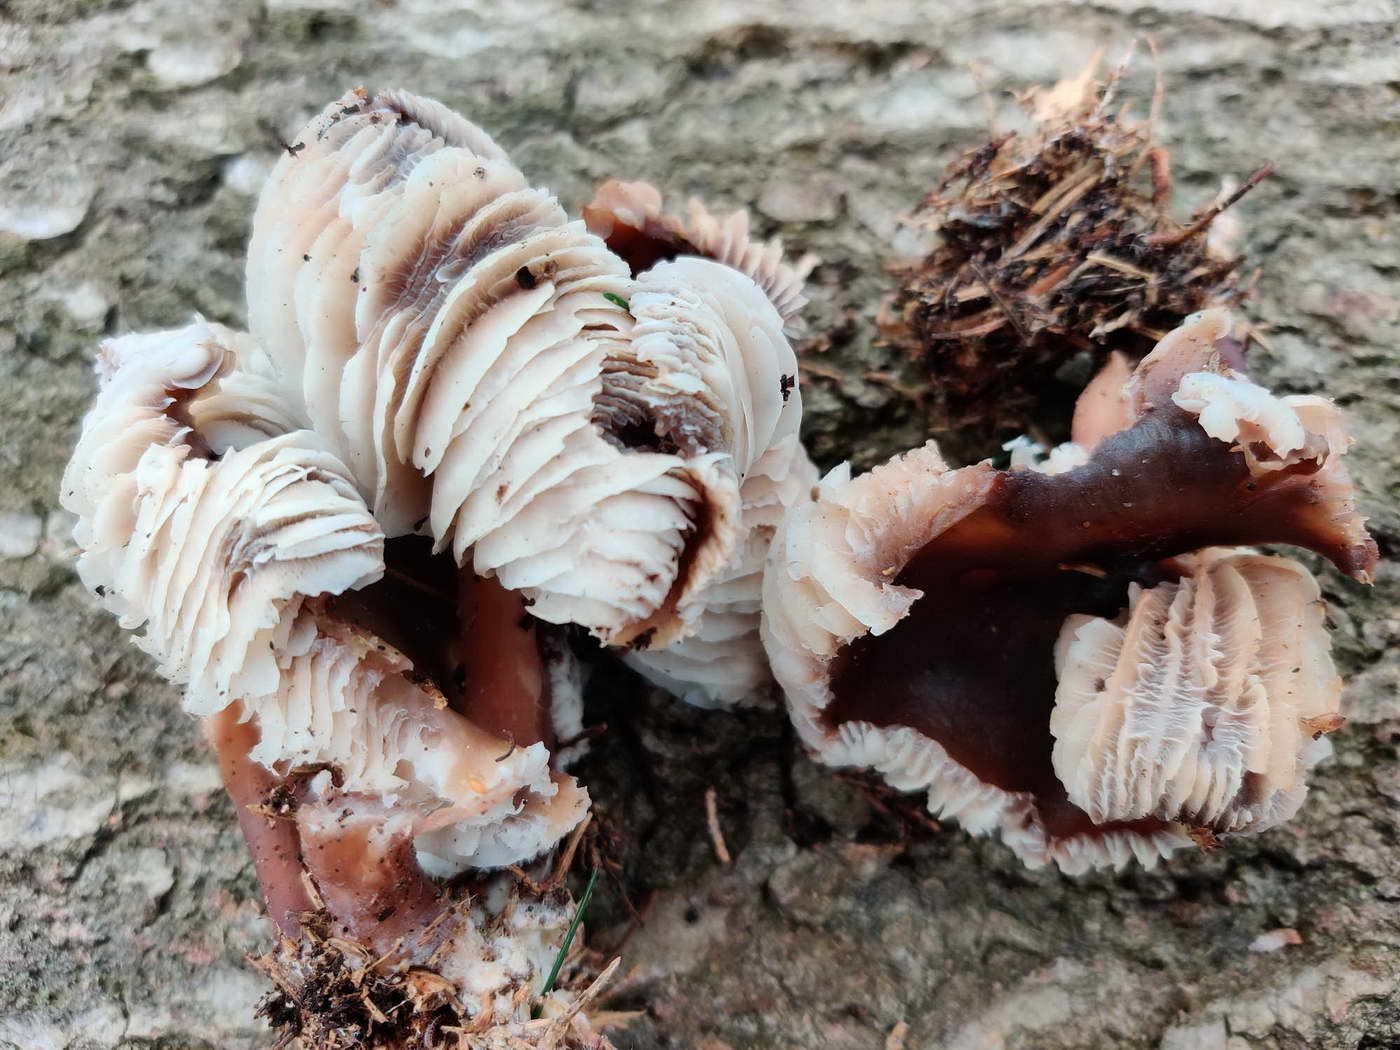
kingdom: Fungi
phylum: Basidiomycota
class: Agaricomycetes
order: Agaricales
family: Omphalotaceae
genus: Rhodocollybia
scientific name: Rhodocollybia butyracea
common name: keglestokket fladhat
